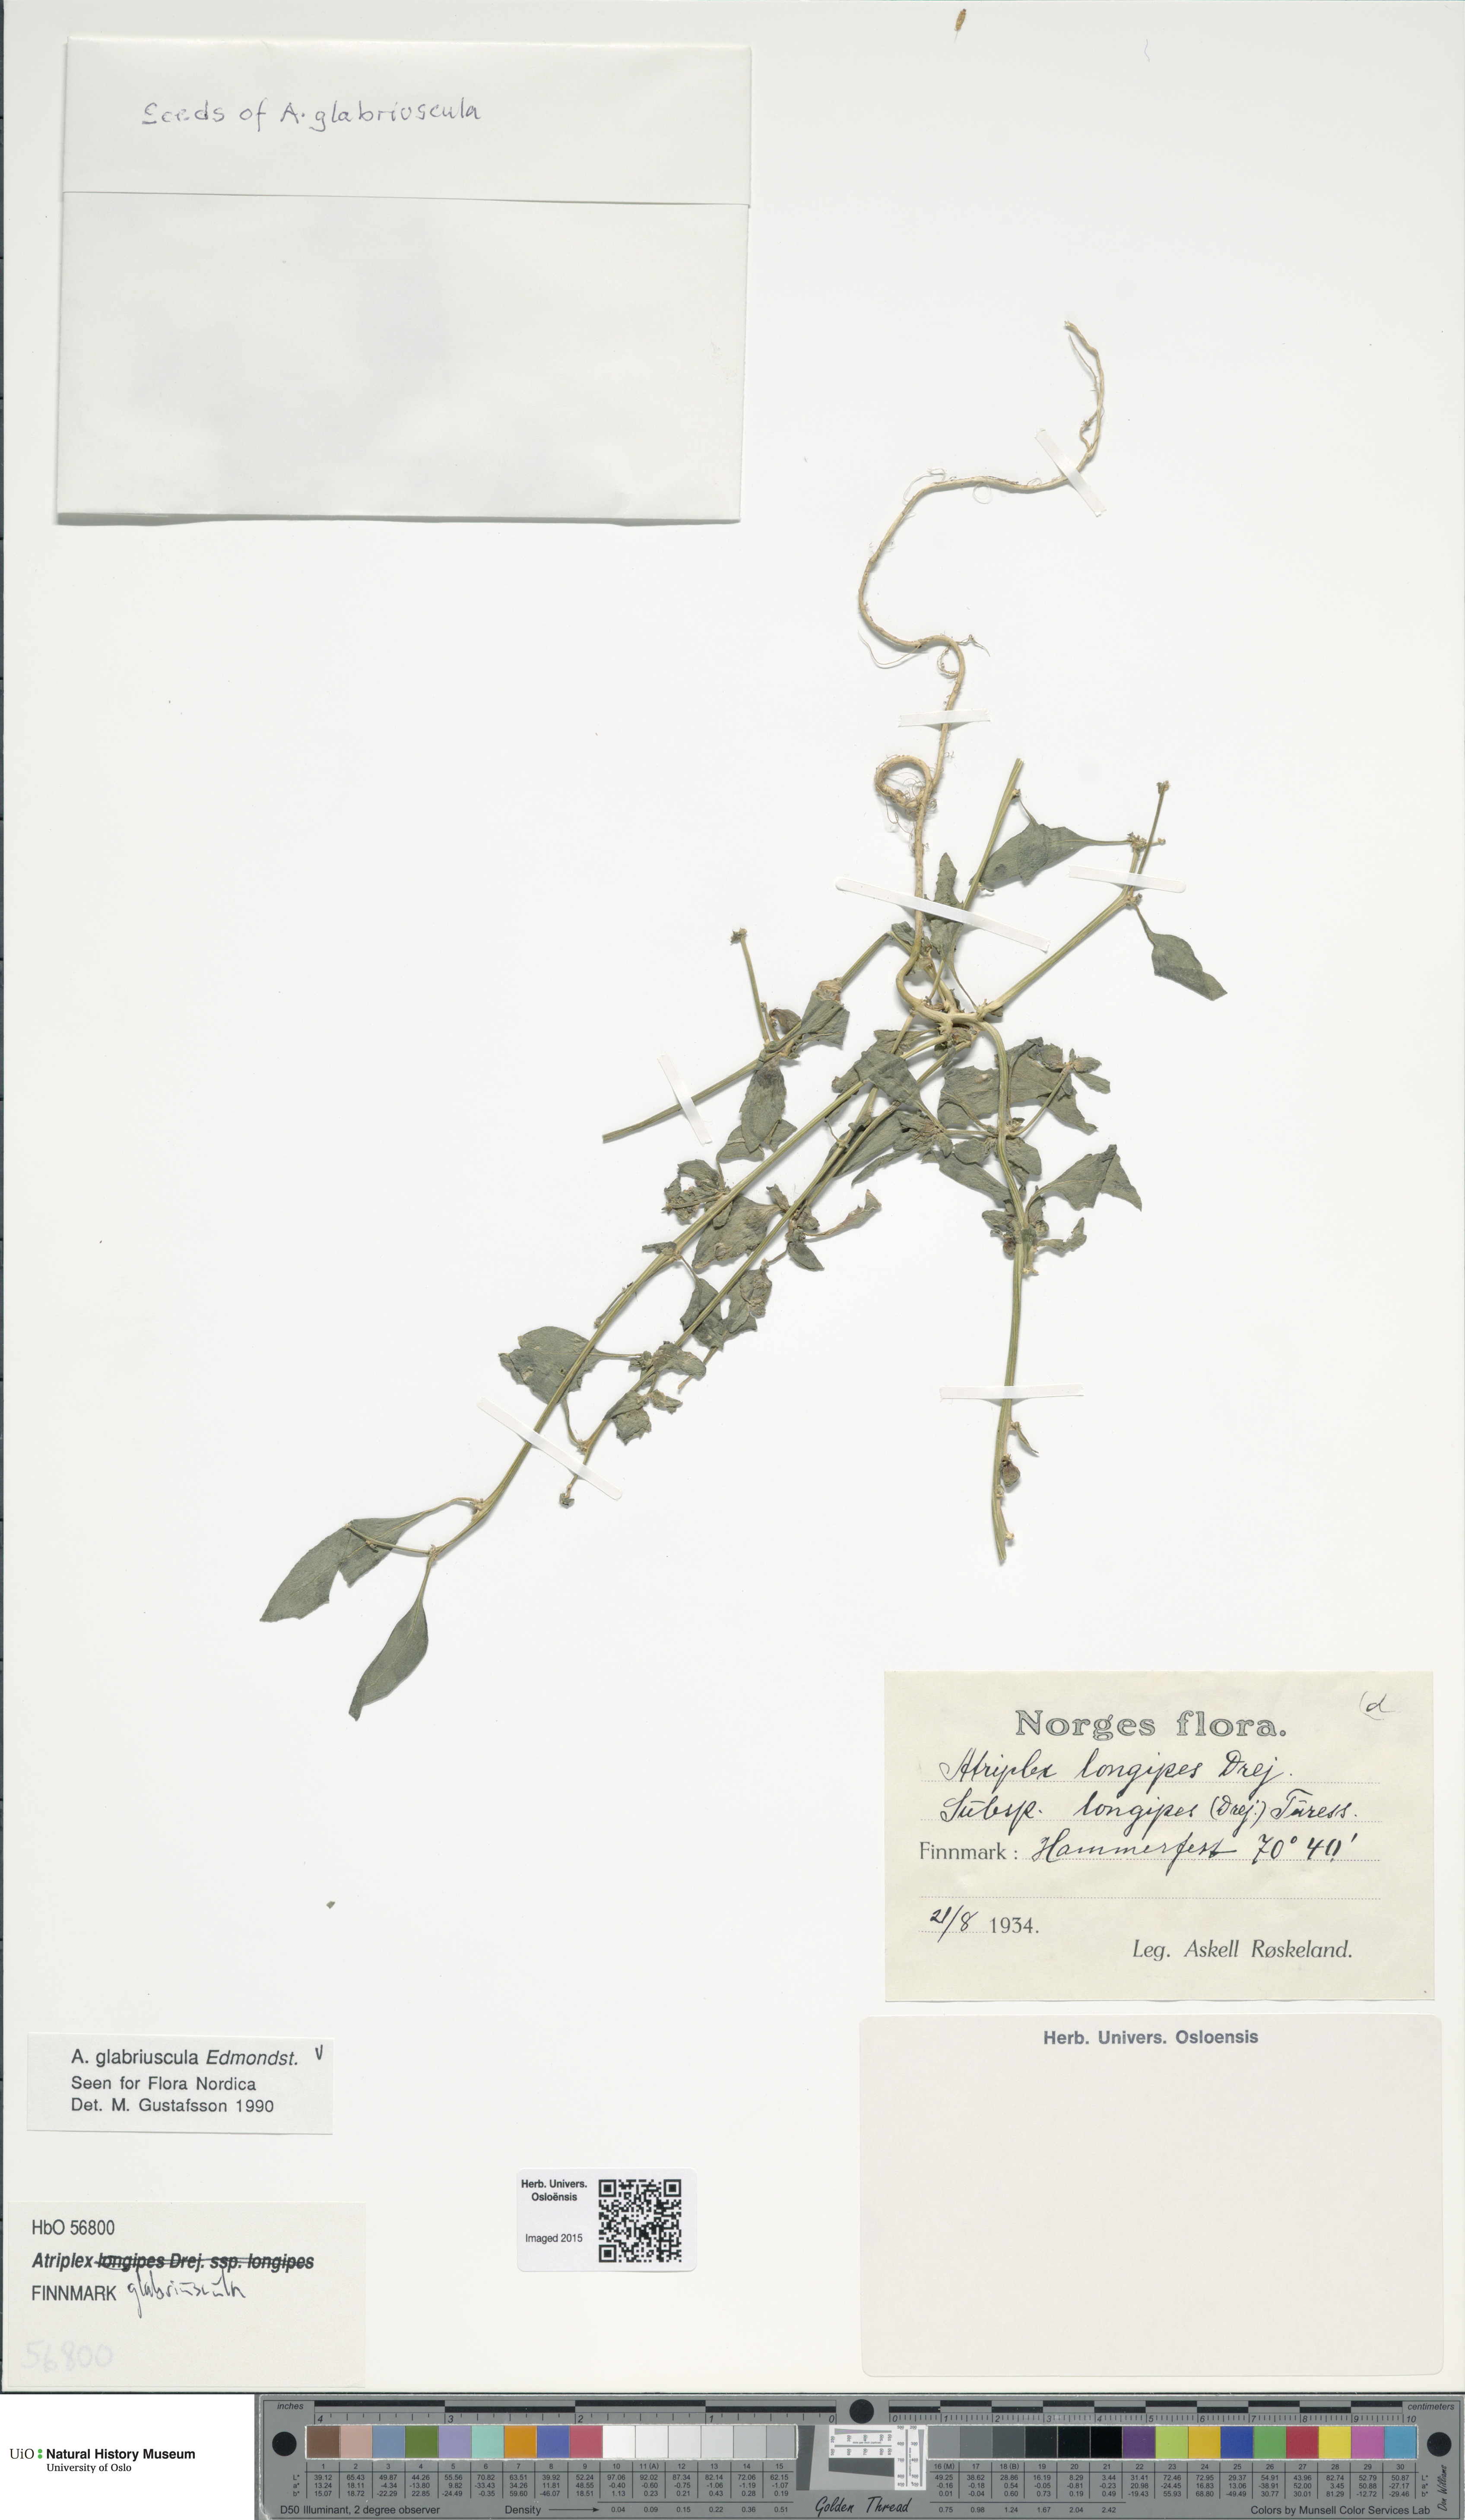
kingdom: Plantae
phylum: Tracheophyta
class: Magnoliopsida
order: Caryophyllales
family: Amaranthaceae
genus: Atriplex
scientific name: Atriplex glabriuscula
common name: Babington's orache
